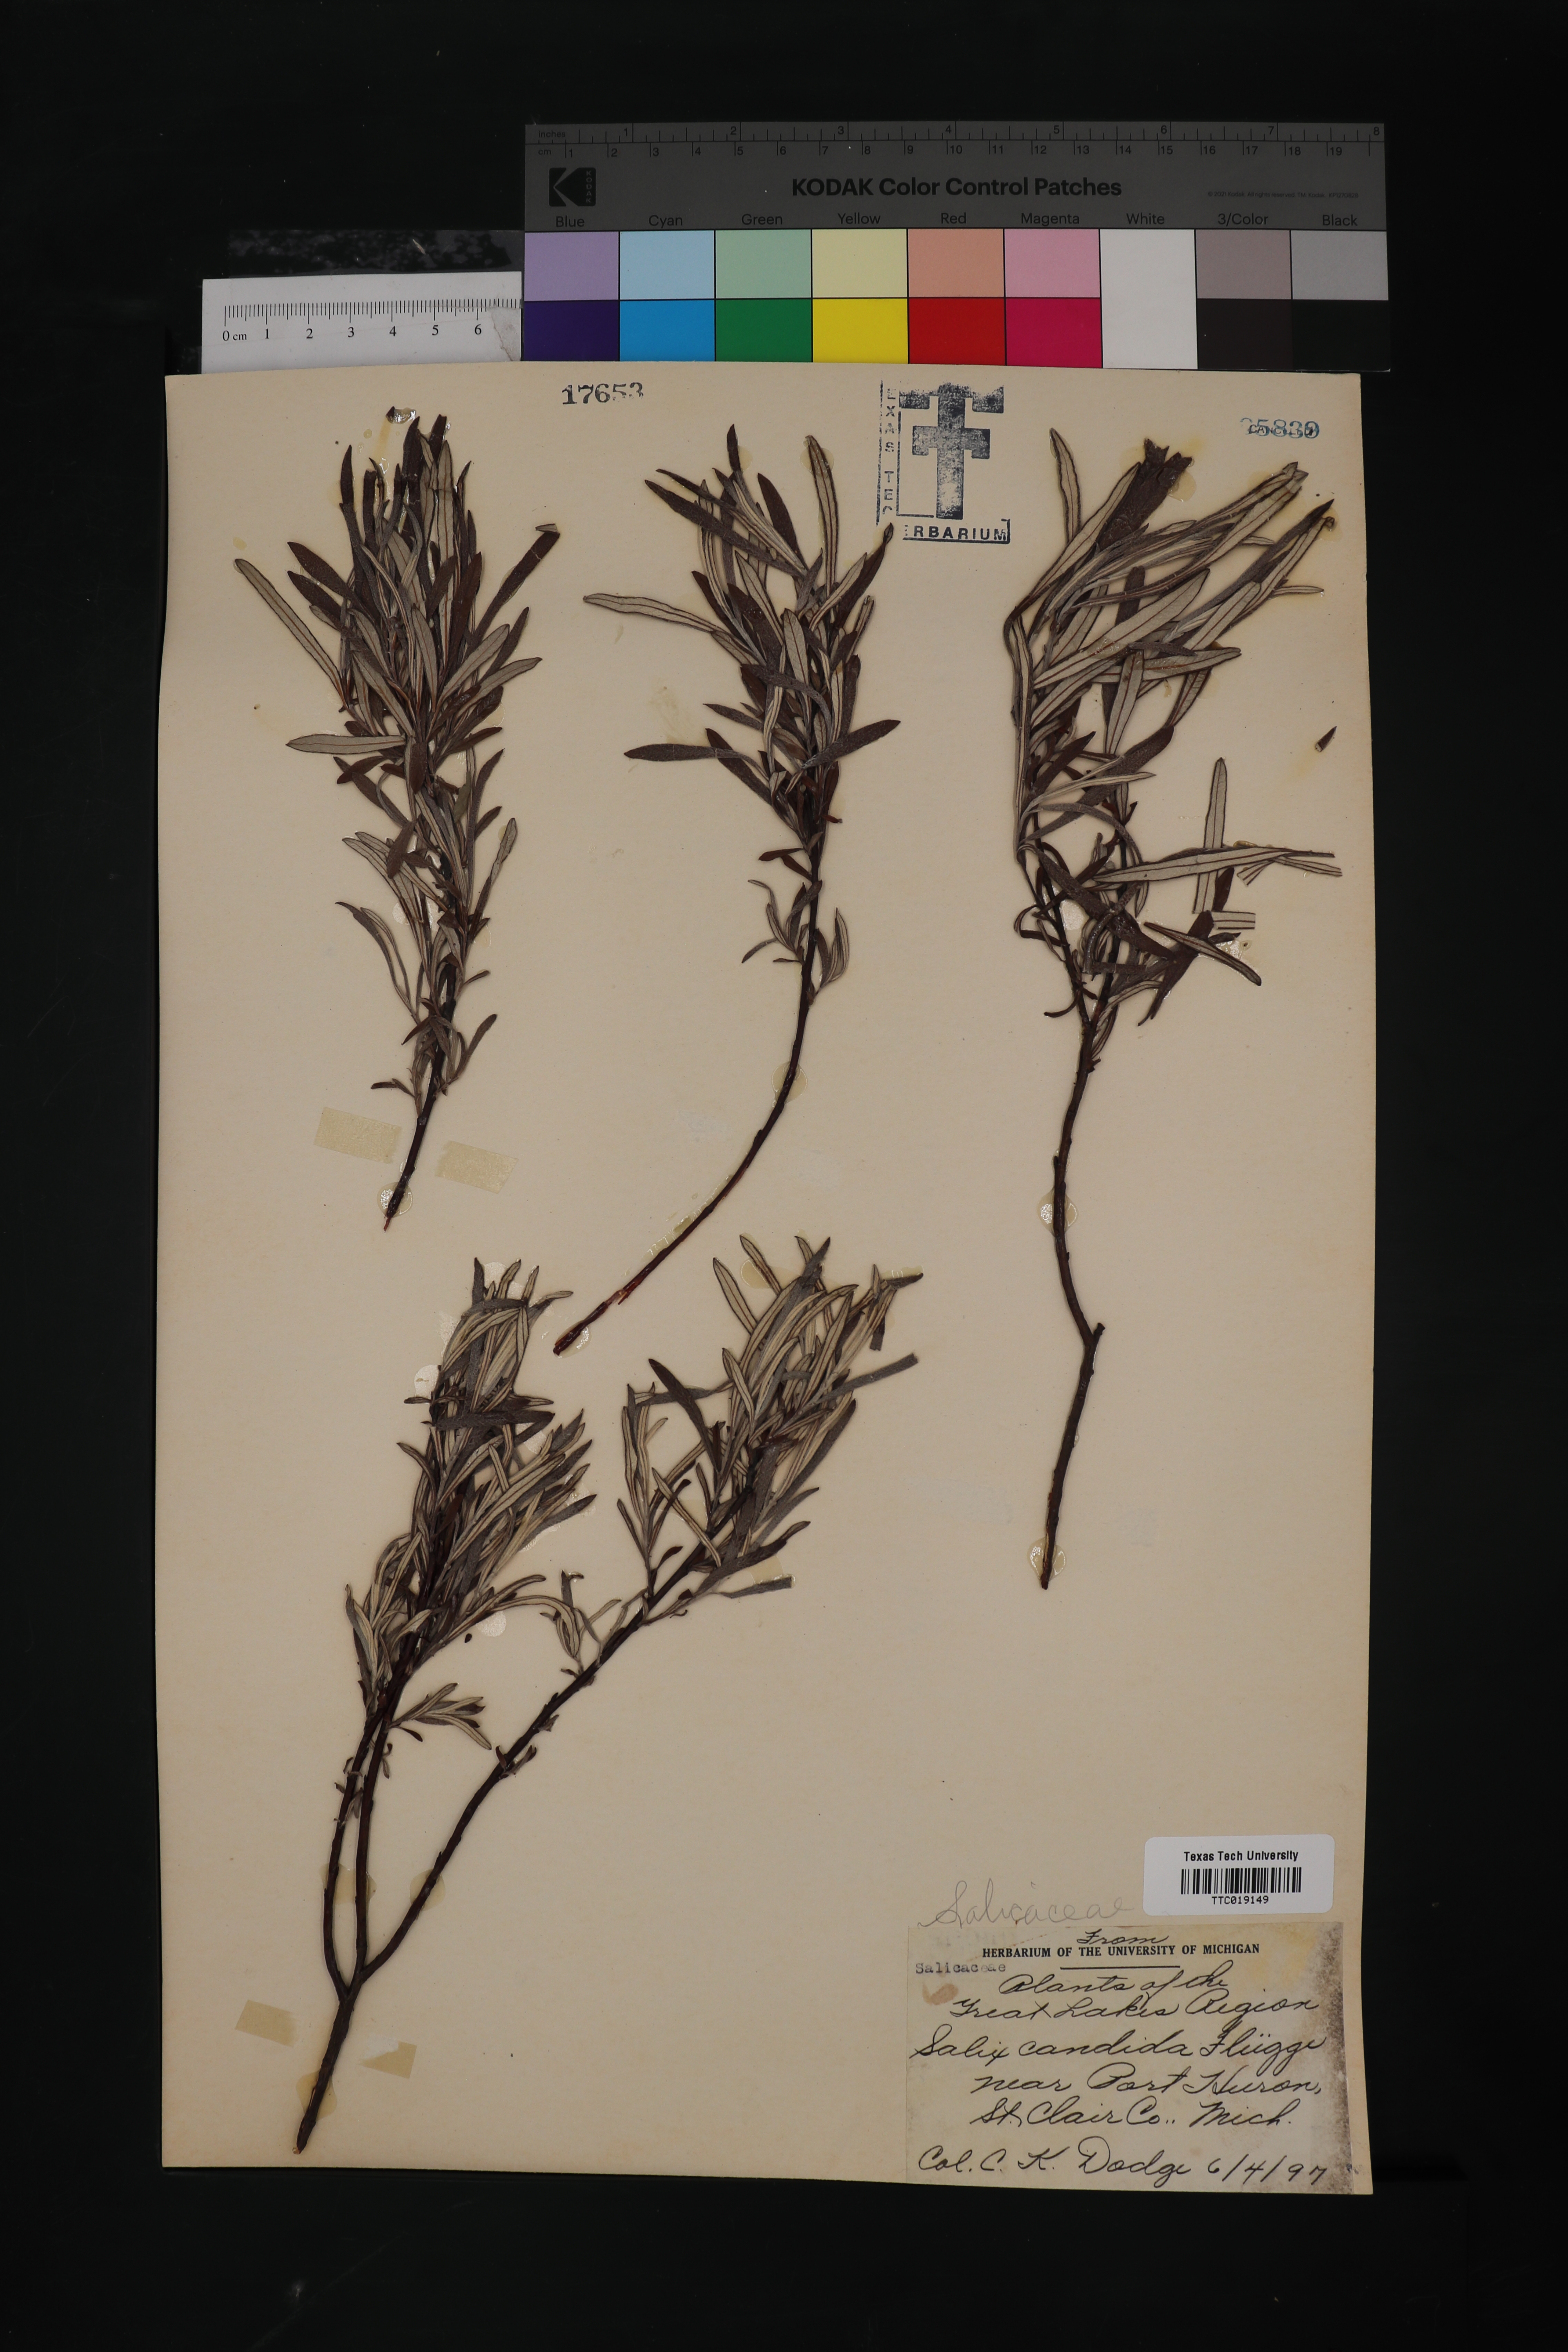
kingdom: Plantae
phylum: Tracheophyta
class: Magnoliopsida
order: Malpighiales
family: Salicaceae
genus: Salix
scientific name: Salix candida
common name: Hoary willow
